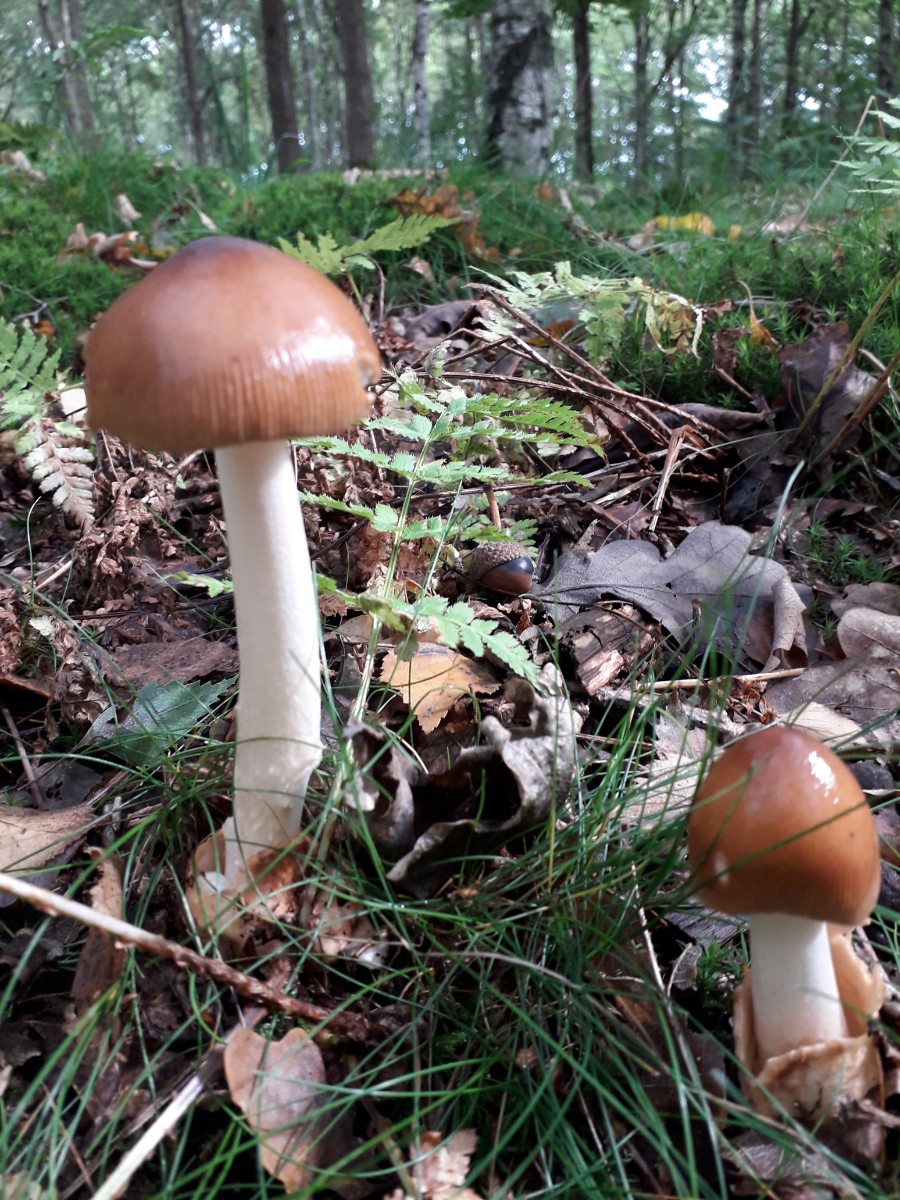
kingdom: Fungi
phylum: Basidiomycota
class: Agaricomycetes
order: Agaricales
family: Amanitaceae
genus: Amanita
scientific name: Amanita fulva
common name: brun kam-fluesvamp
